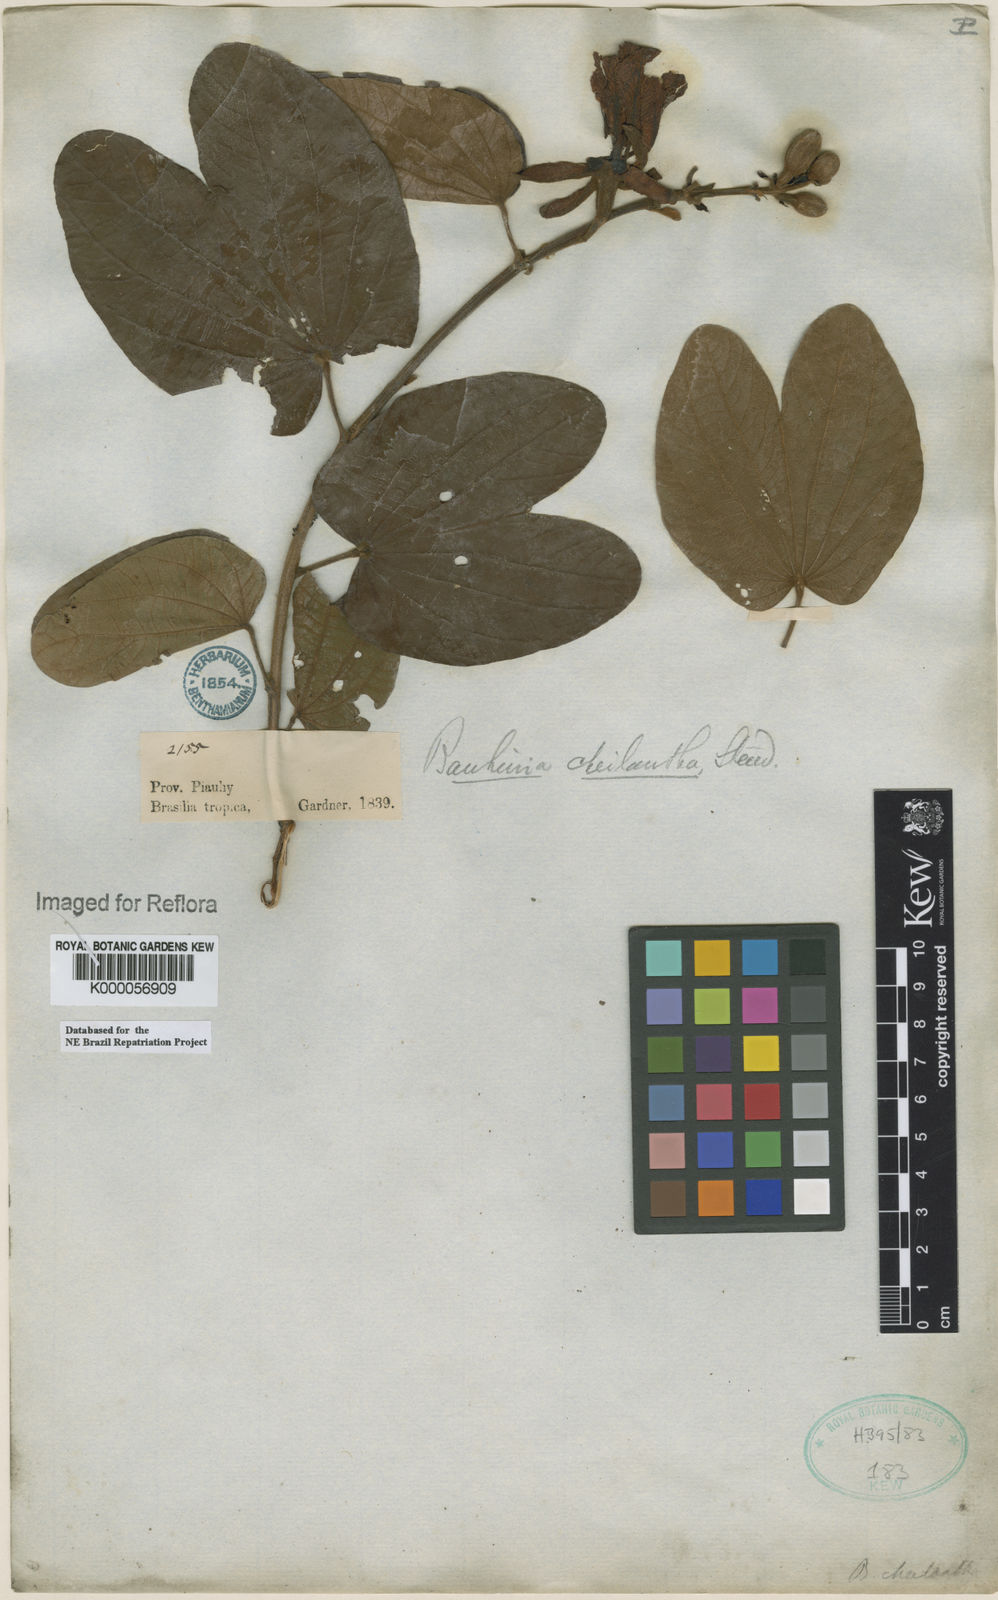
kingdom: Plantae
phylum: Tracheophyta
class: Magnoliopsida
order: Fabales
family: Fabaceae
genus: Bauhinia
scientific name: Bauhinia cheilantha
